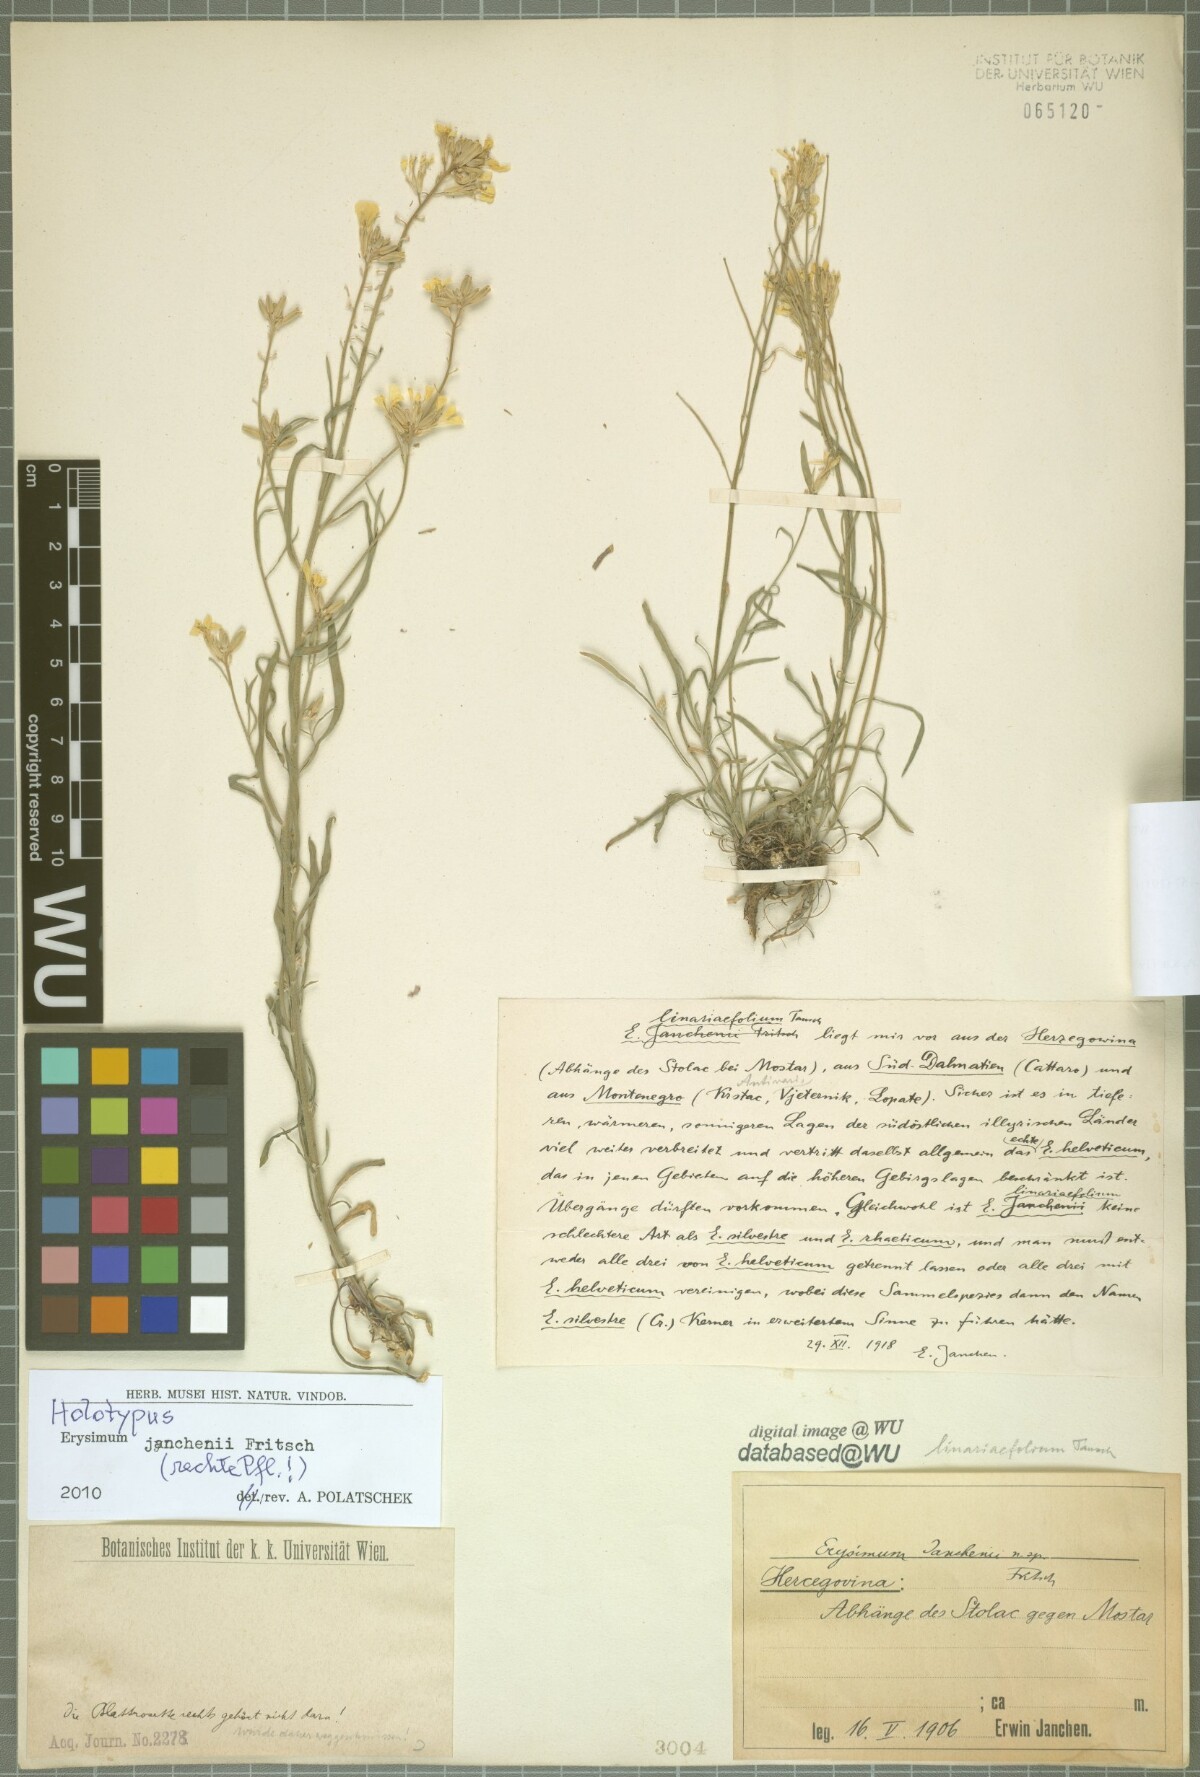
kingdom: Plantae
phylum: Tracheophyta
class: Magnoliopsida
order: Brassicales
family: Brassicaceae
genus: Erysimum
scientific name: Erysimum linariifolium
